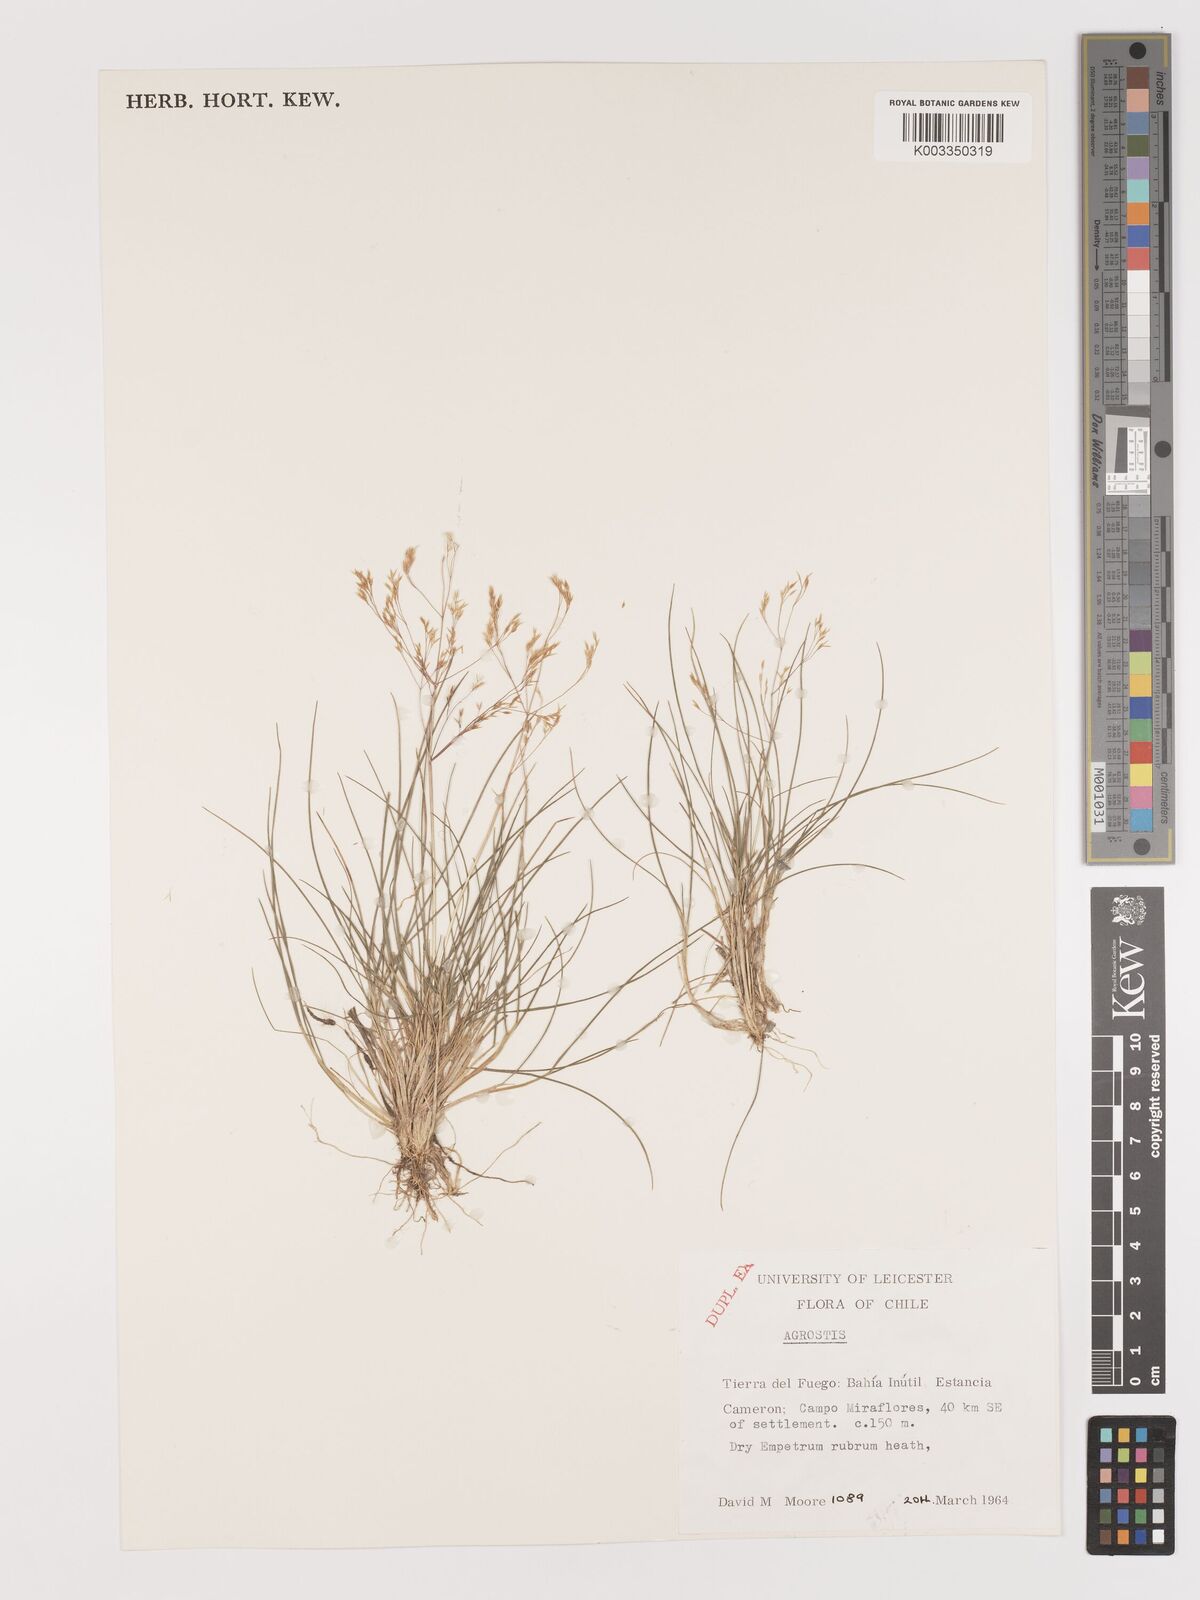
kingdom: Plantae
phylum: Tracheophyta
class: Liliopsida
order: Poales
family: Poaceae
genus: Agrostis
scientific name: Agrostis
